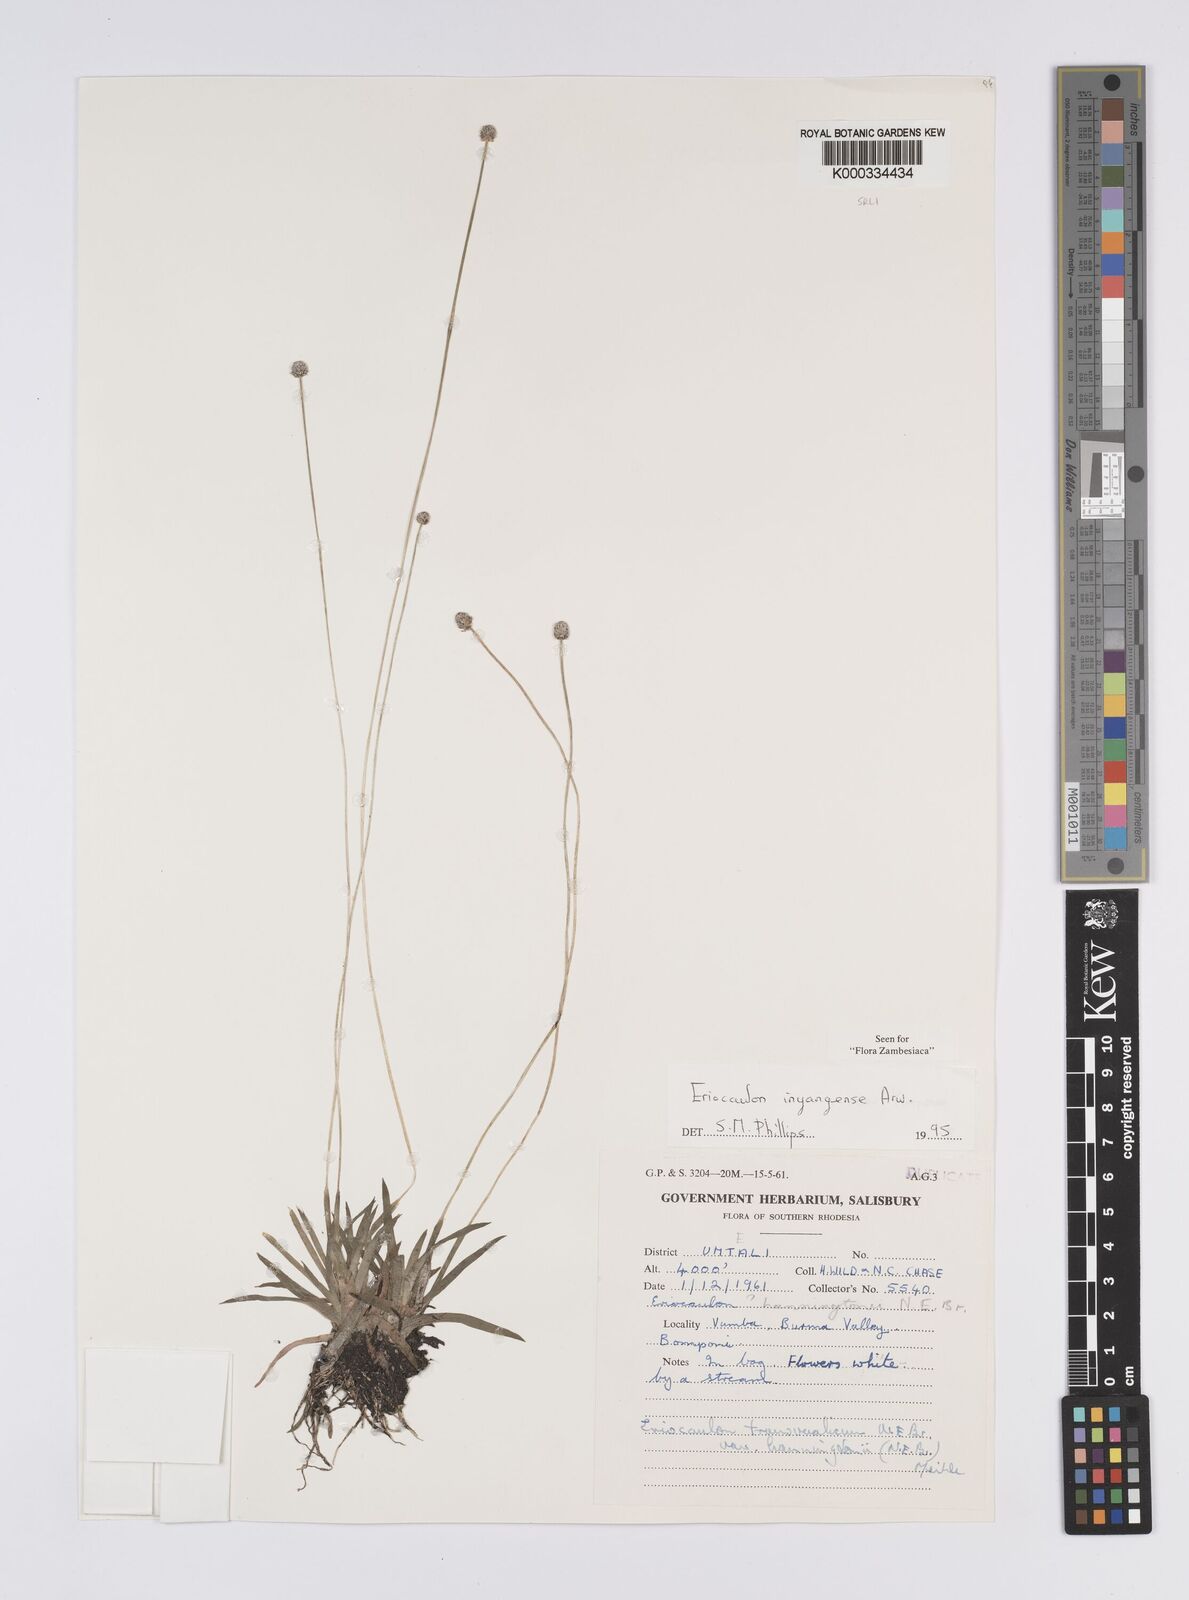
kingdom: Plantae
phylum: Tracheophyta
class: Liliopsida
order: Poales
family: Eriocaulaceae
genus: Eriocaulon
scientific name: Eriocaulon inyangense
